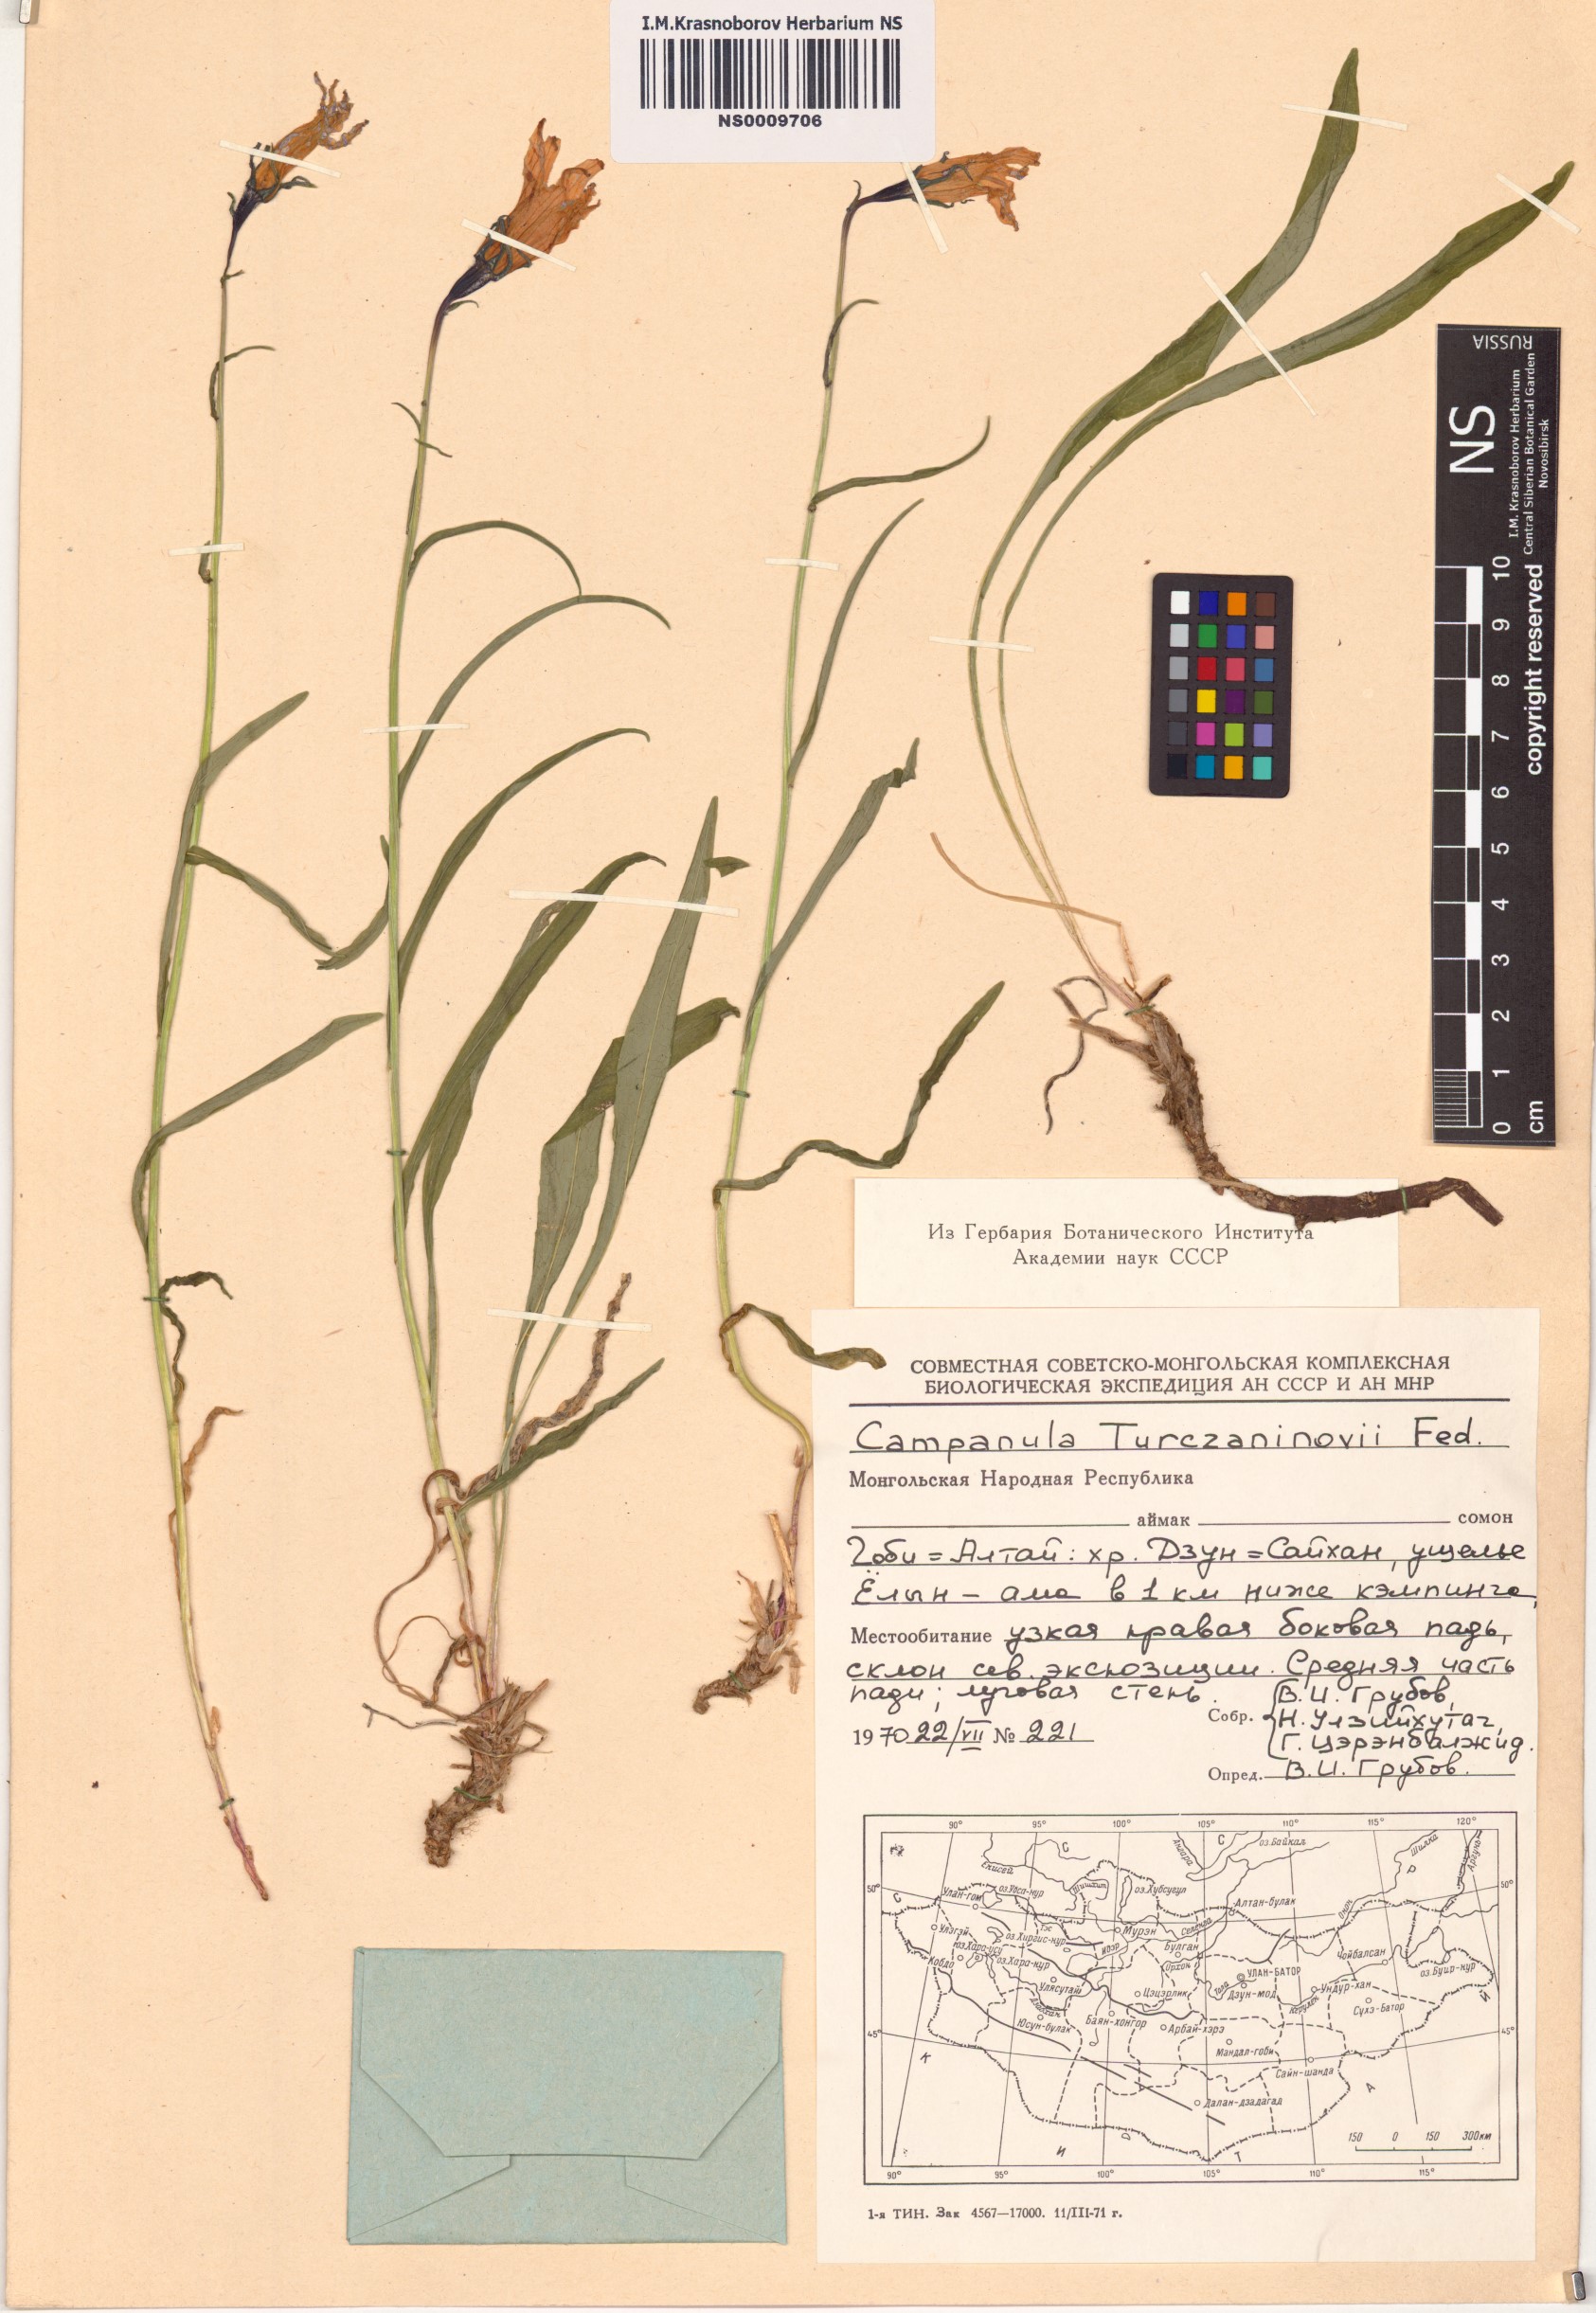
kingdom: Plantae
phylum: Tracheophyta
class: Magnoliopsida
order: Asterales
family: Campanulaceae
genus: Campanula
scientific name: Campanula stevenii
